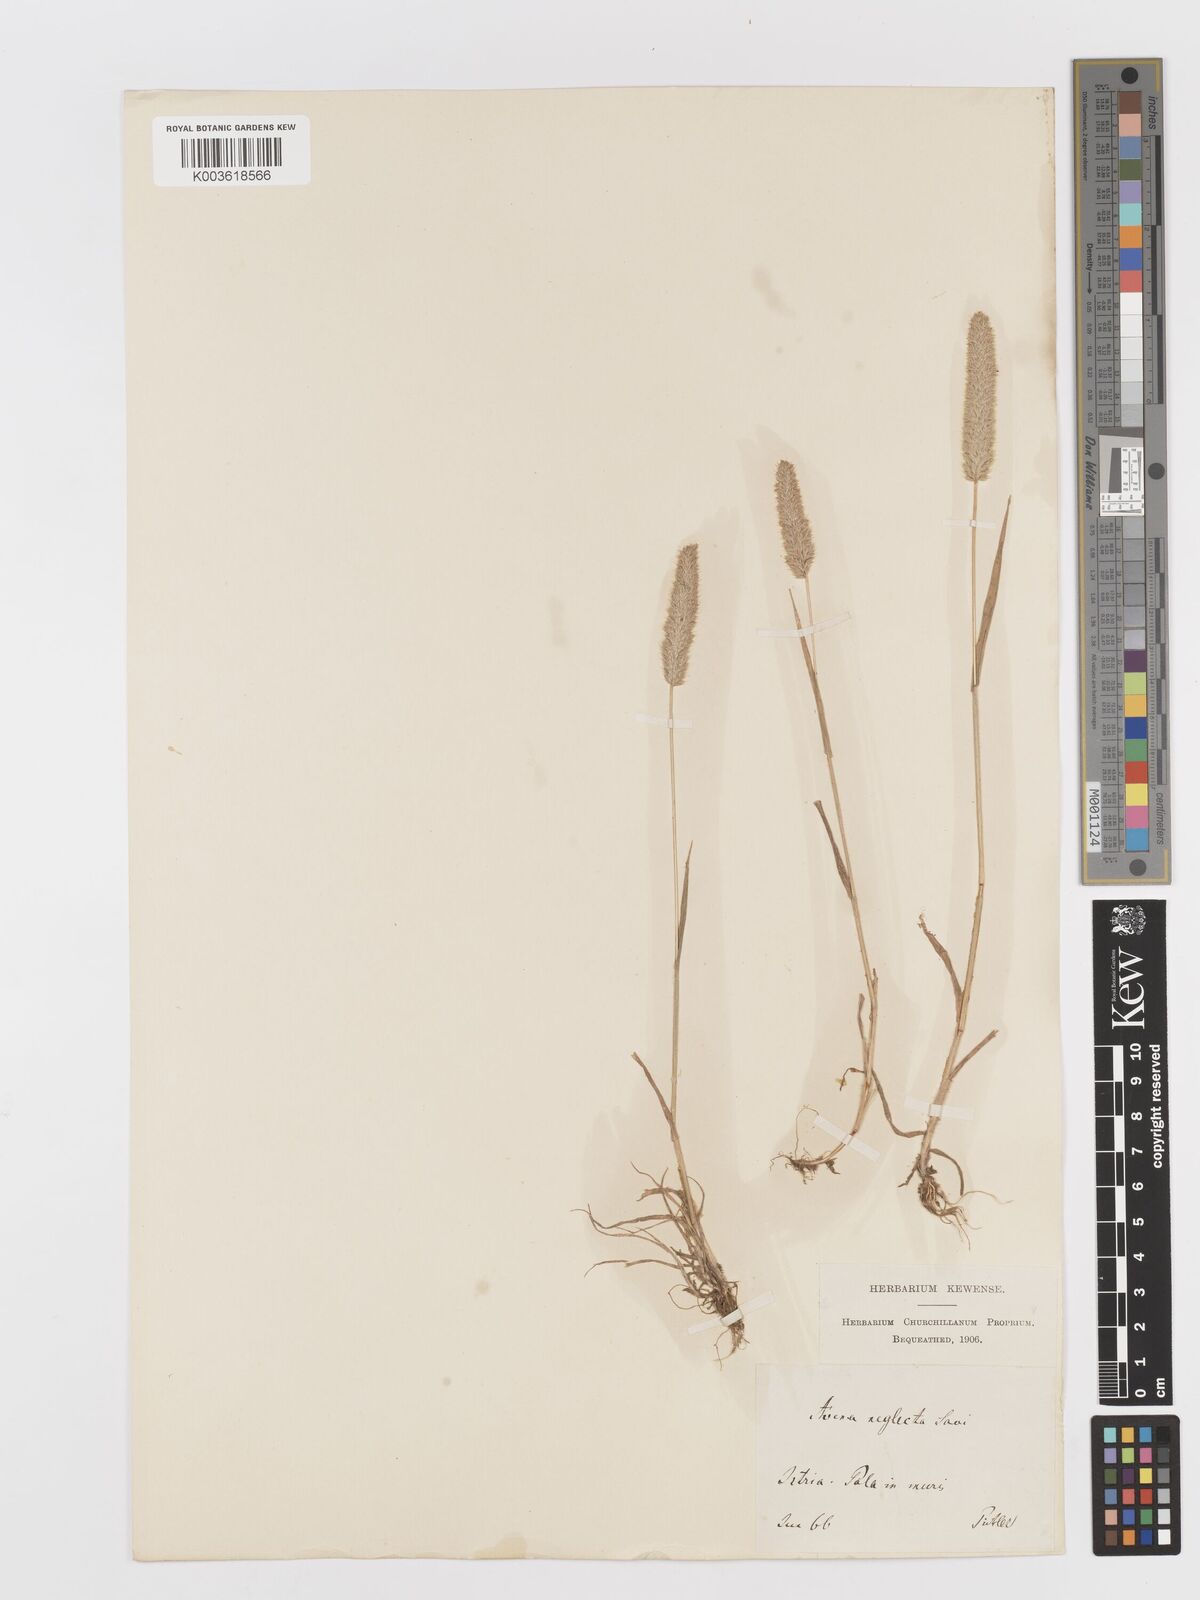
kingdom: Plantae
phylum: Tracheophyta
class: Liliopsida
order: Poales
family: Poaceae
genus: Rostraria
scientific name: Rostraria cristata
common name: Mediterranean hair-grass
